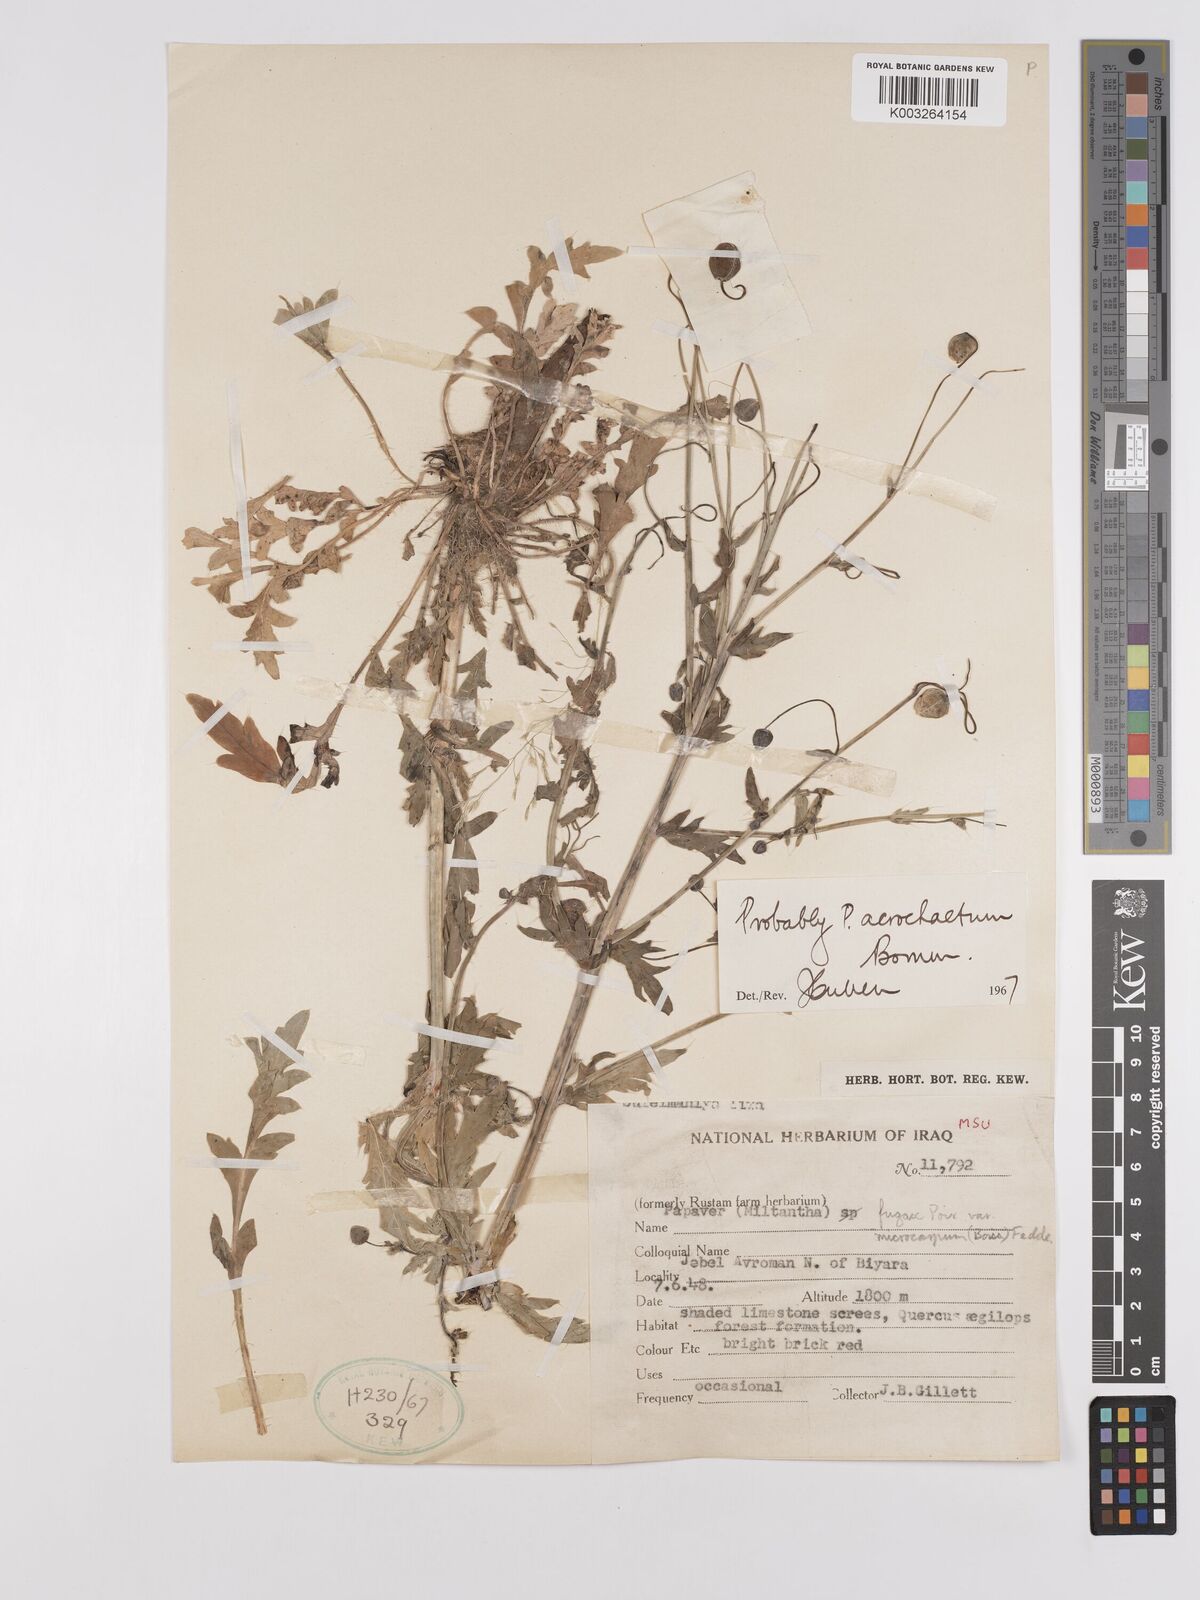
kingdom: Plantae
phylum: Tracheophyta
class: Magnoliopsida
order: Ranunculales
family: Papaveraceae
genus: Papaver
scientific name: Papaver acrochaetum
